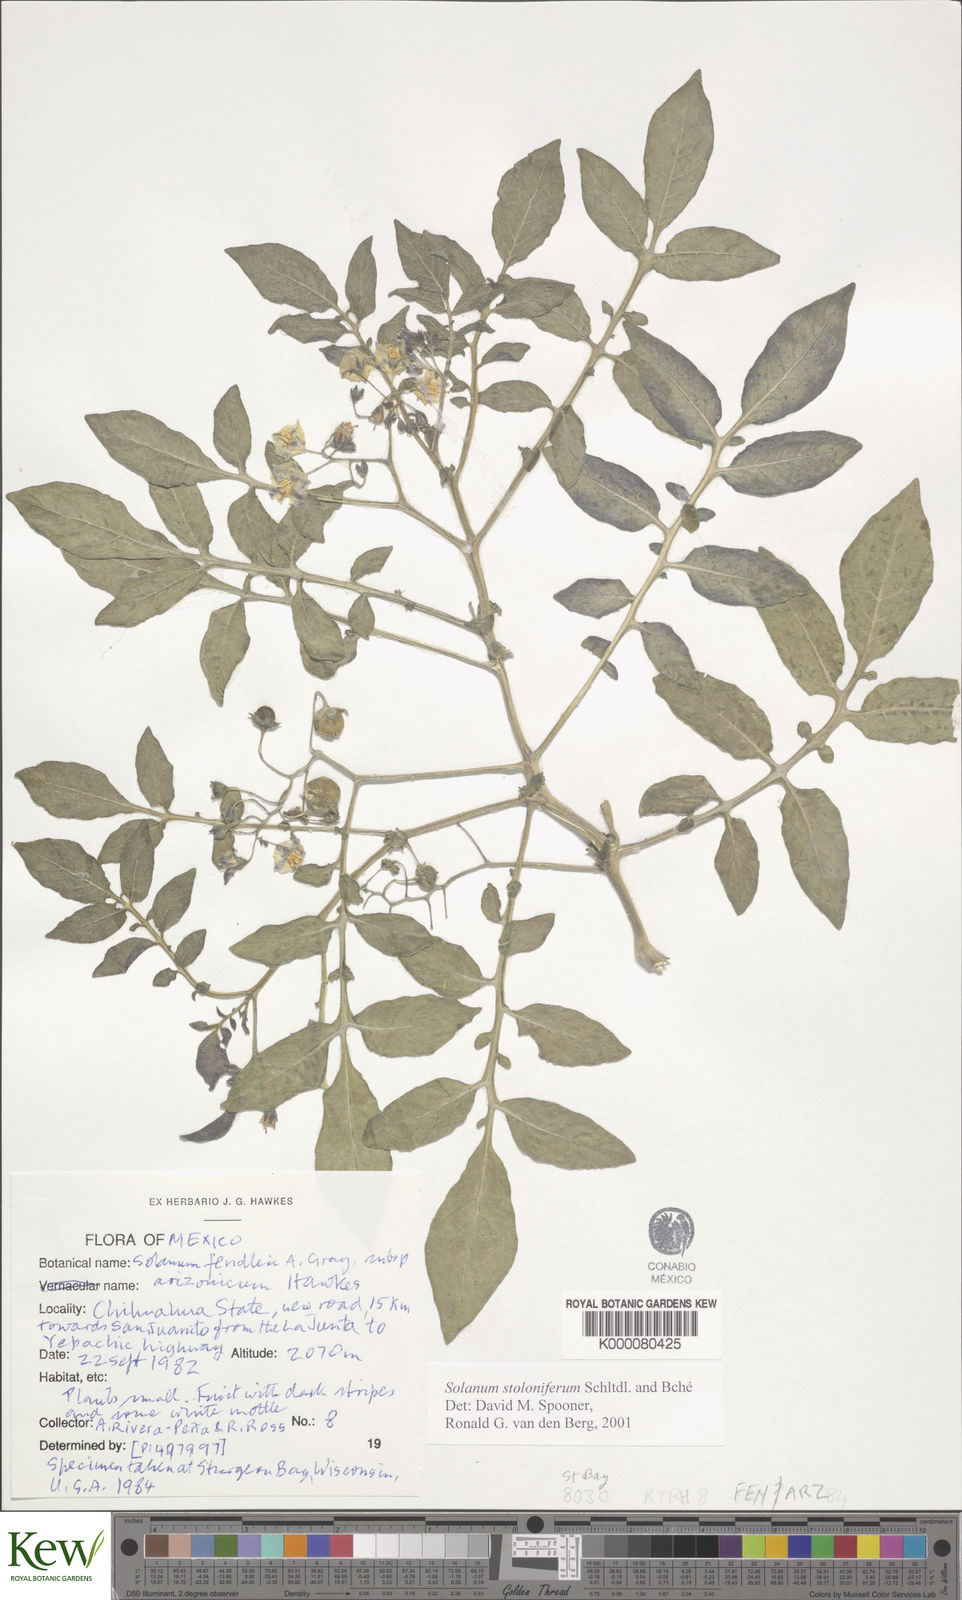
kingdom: Plantae
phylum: Tracheophyta
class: Magnoliopsida
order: Solanales
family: Solanaceae
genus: Solanum
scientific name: Solanum stoloniferum
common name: Fendler's nighshade
